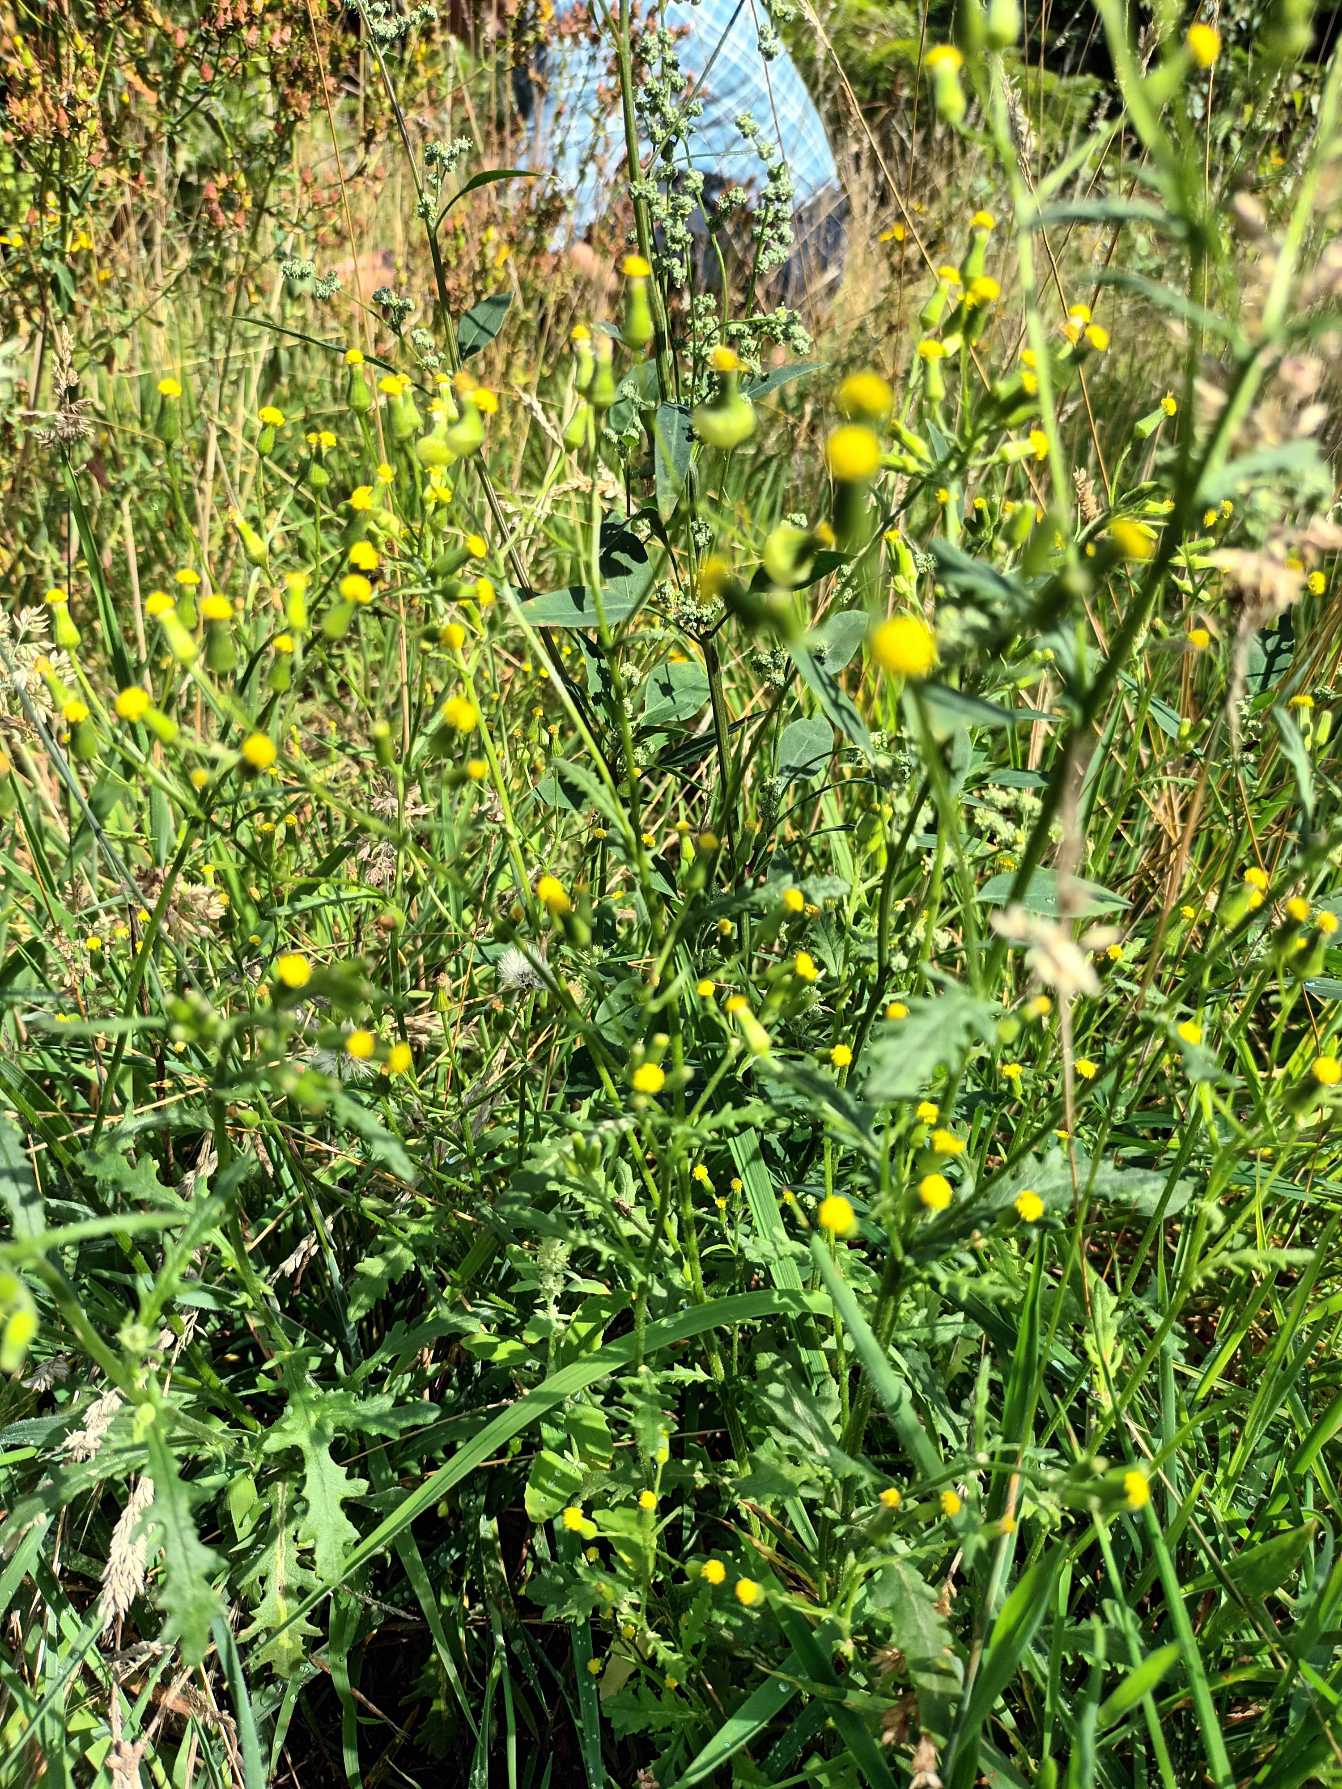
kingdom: Plantae
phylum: Tracheophyta
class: Magnoliopsida
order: Asterales
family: Asteraceae
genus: Senecio
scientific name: Senecio sylvaticus
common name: Skov-brandbæger
